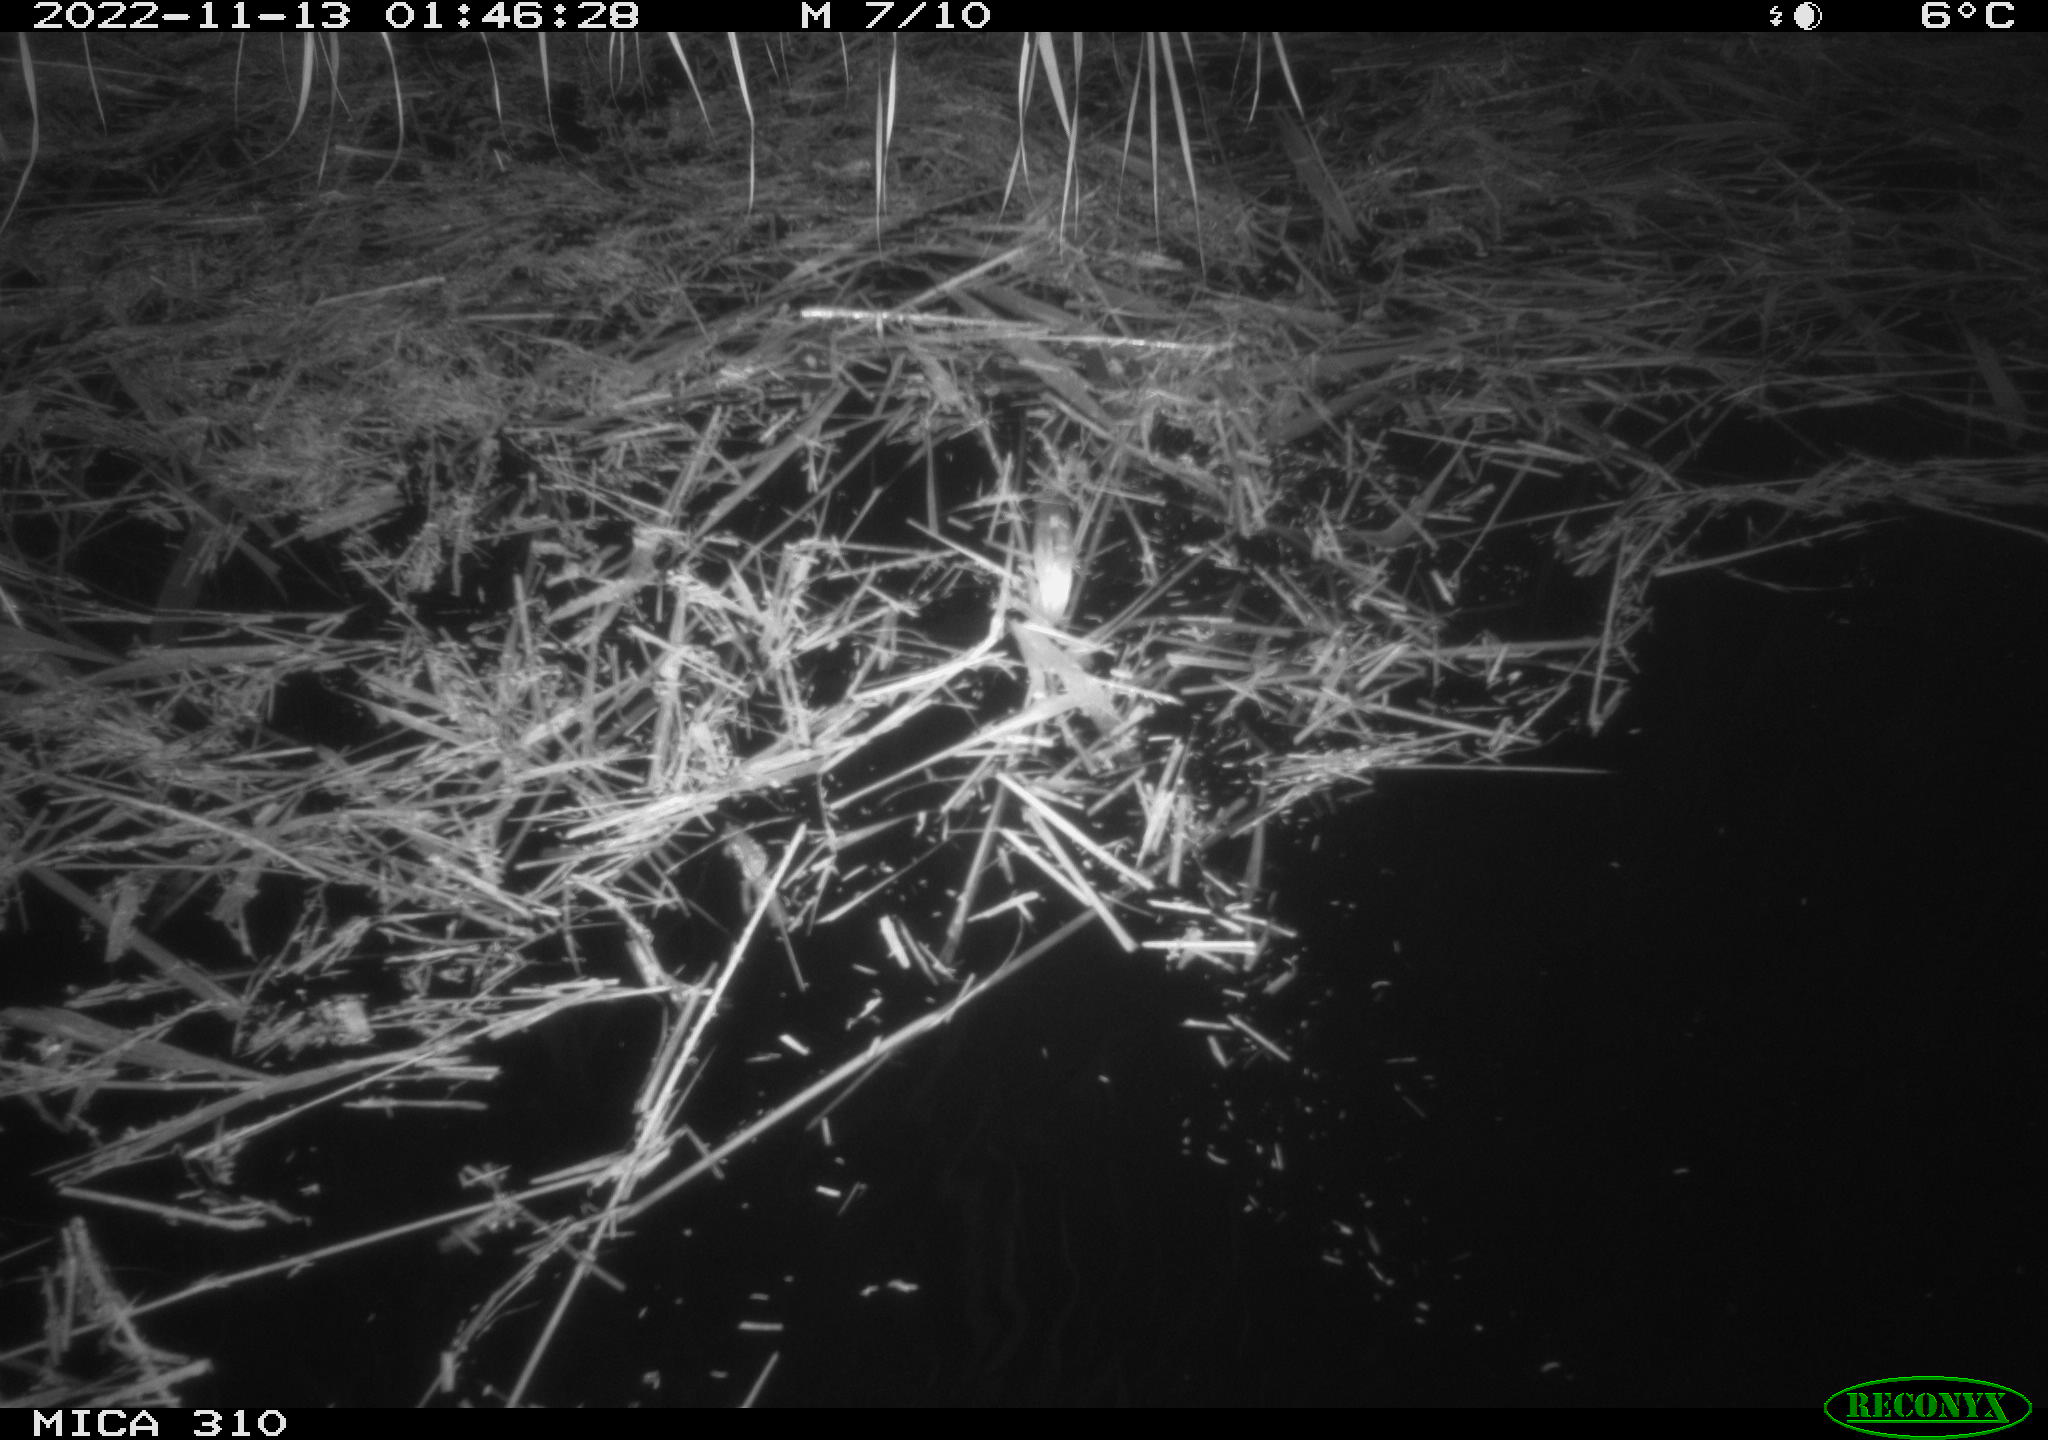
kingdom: Animalia
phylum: Chordata
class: Mammalia
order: Rodentia
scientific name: Rodentia
